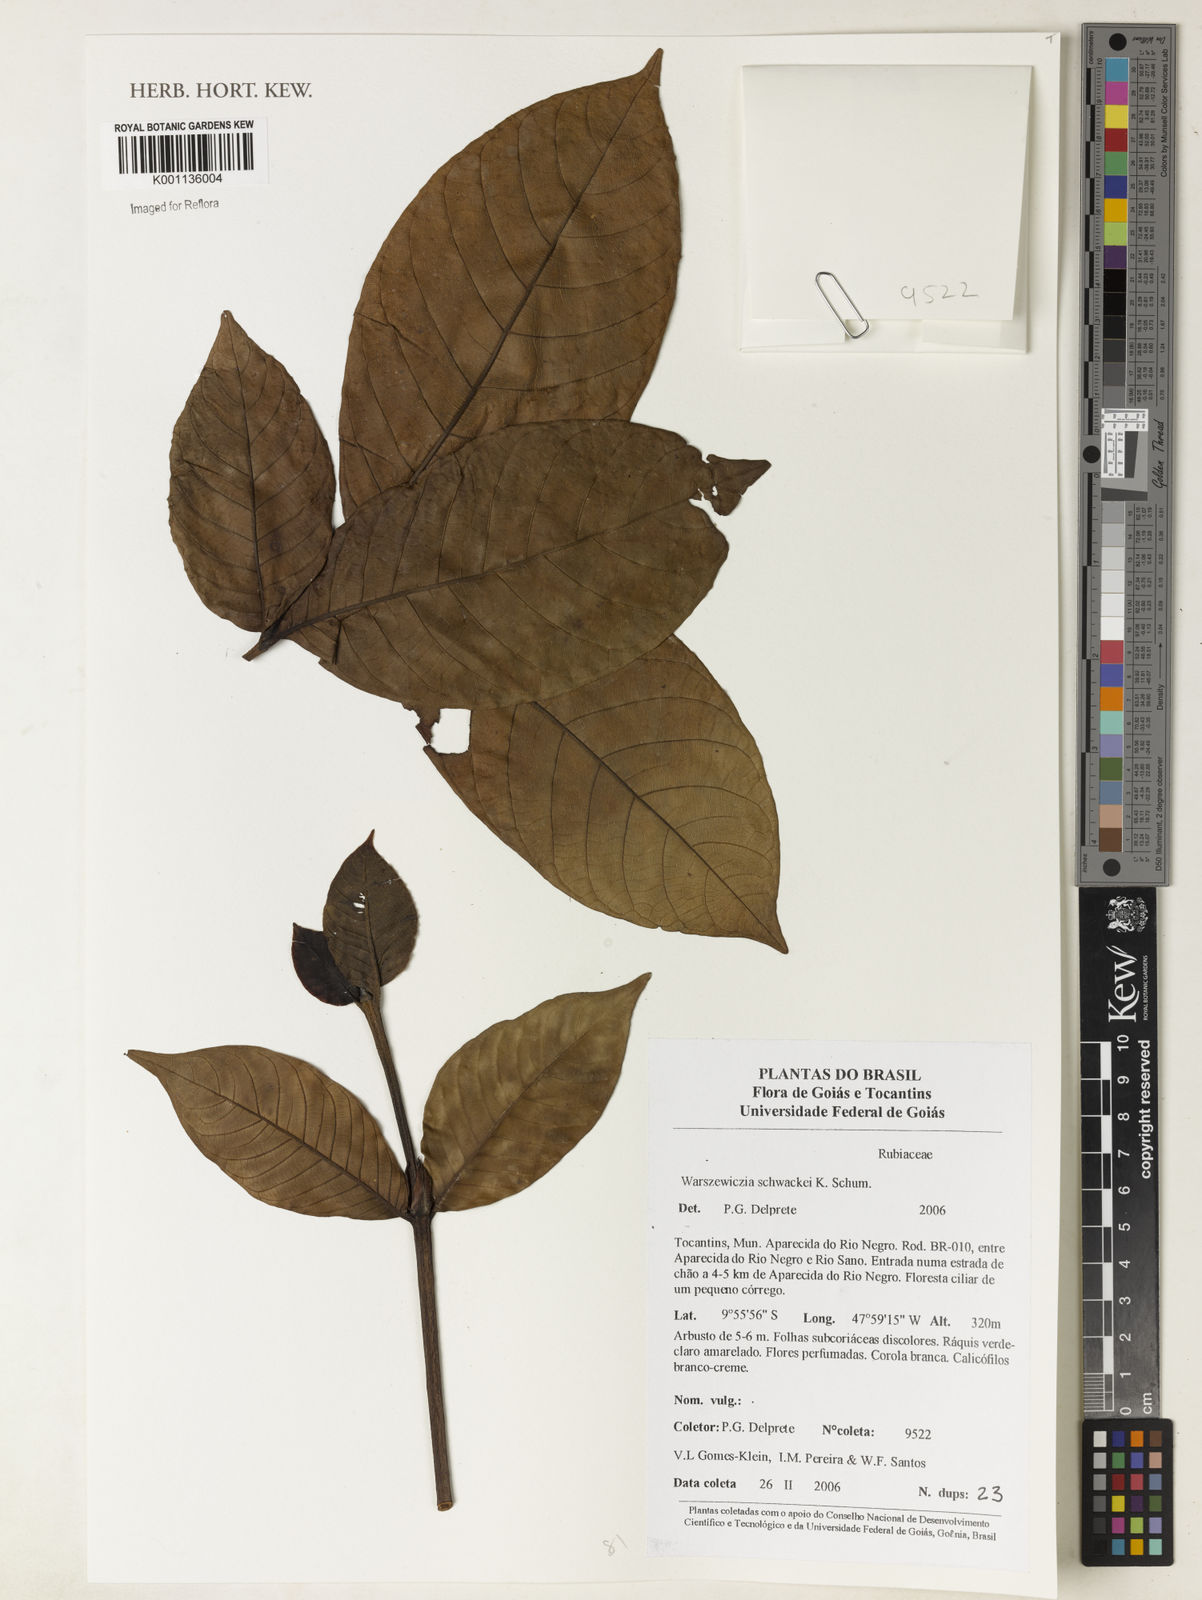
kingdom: Plantae
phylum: Tracheophyta
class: Magnoliopsida
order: Gentianales
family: Rubiaceae
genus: Warszewiczia
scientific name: Warszewiczia schwackei
